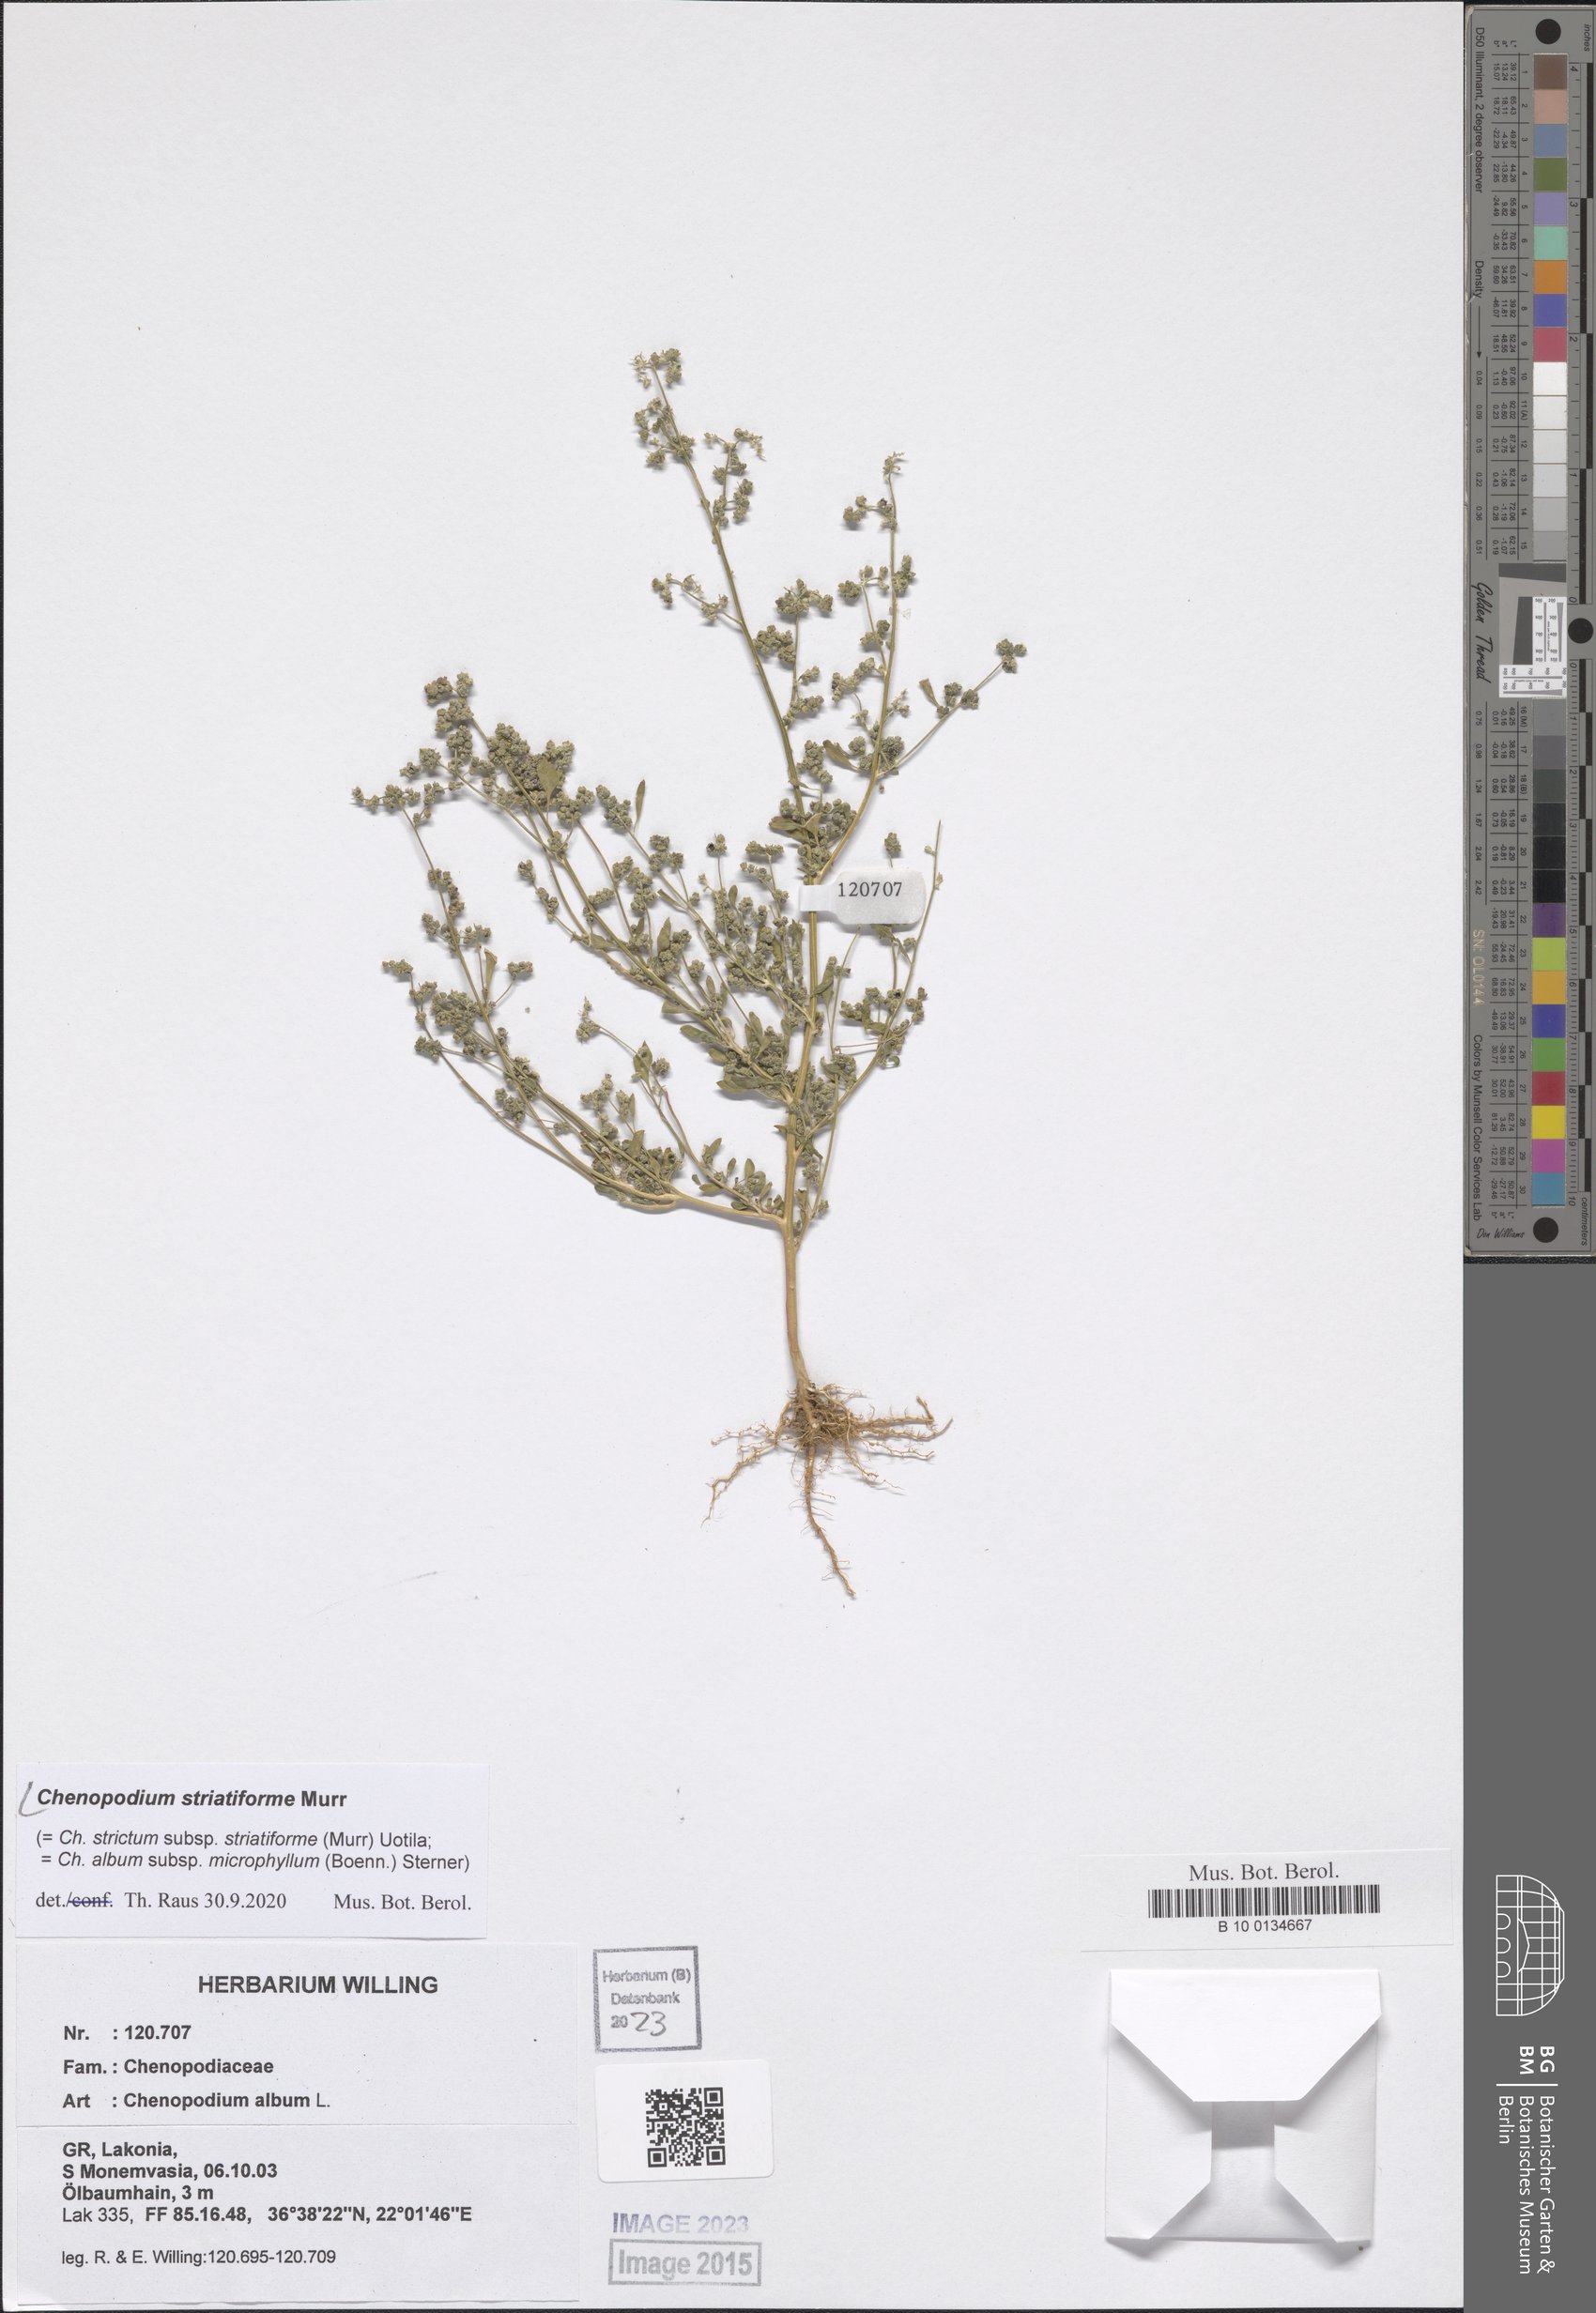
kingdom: Plantae
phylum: Tracheophyta
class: Magnoliopsida
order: Caryophyllales
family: Amaranthaceae
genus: Chenopodium
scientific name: Chenopodium striatiforme
